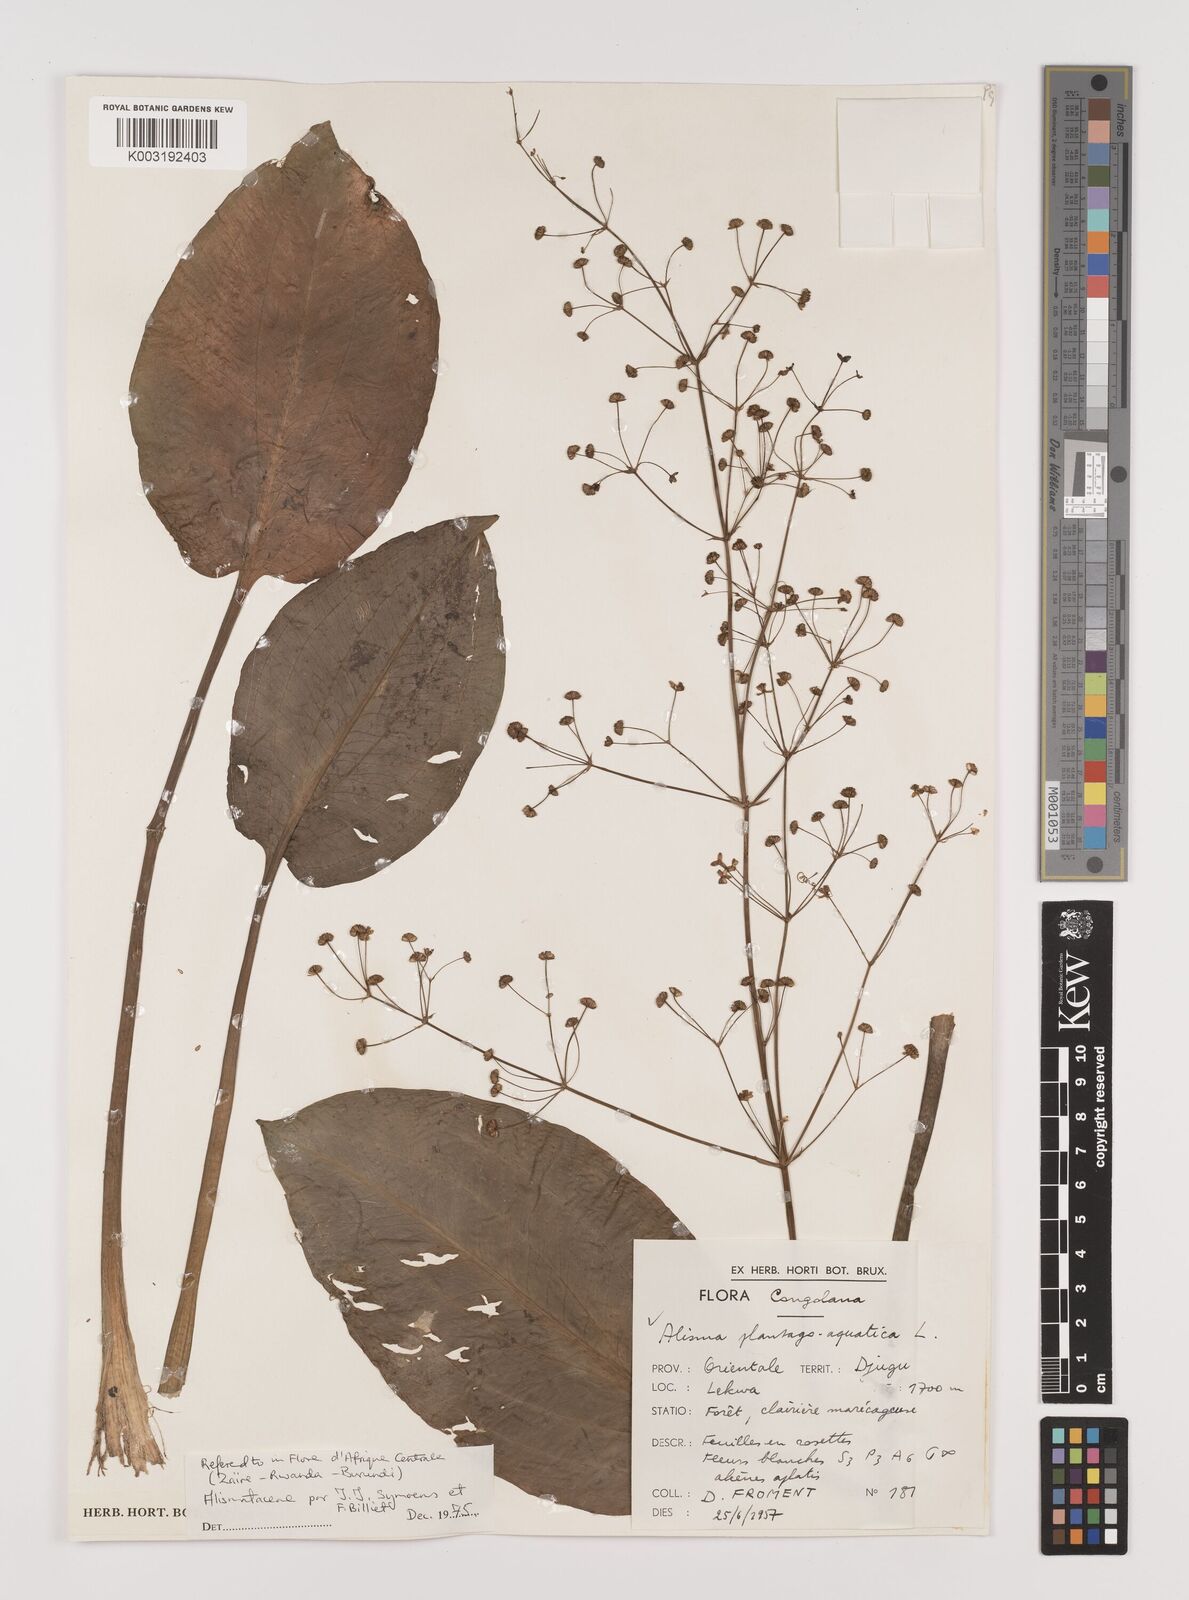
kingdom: Plantae
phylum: Tracheophyta
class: Liliopsida
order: Alismatales
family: Alismataceae
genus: Alisma
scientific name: Alisma plantago-aquatica
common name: Water-plantain
